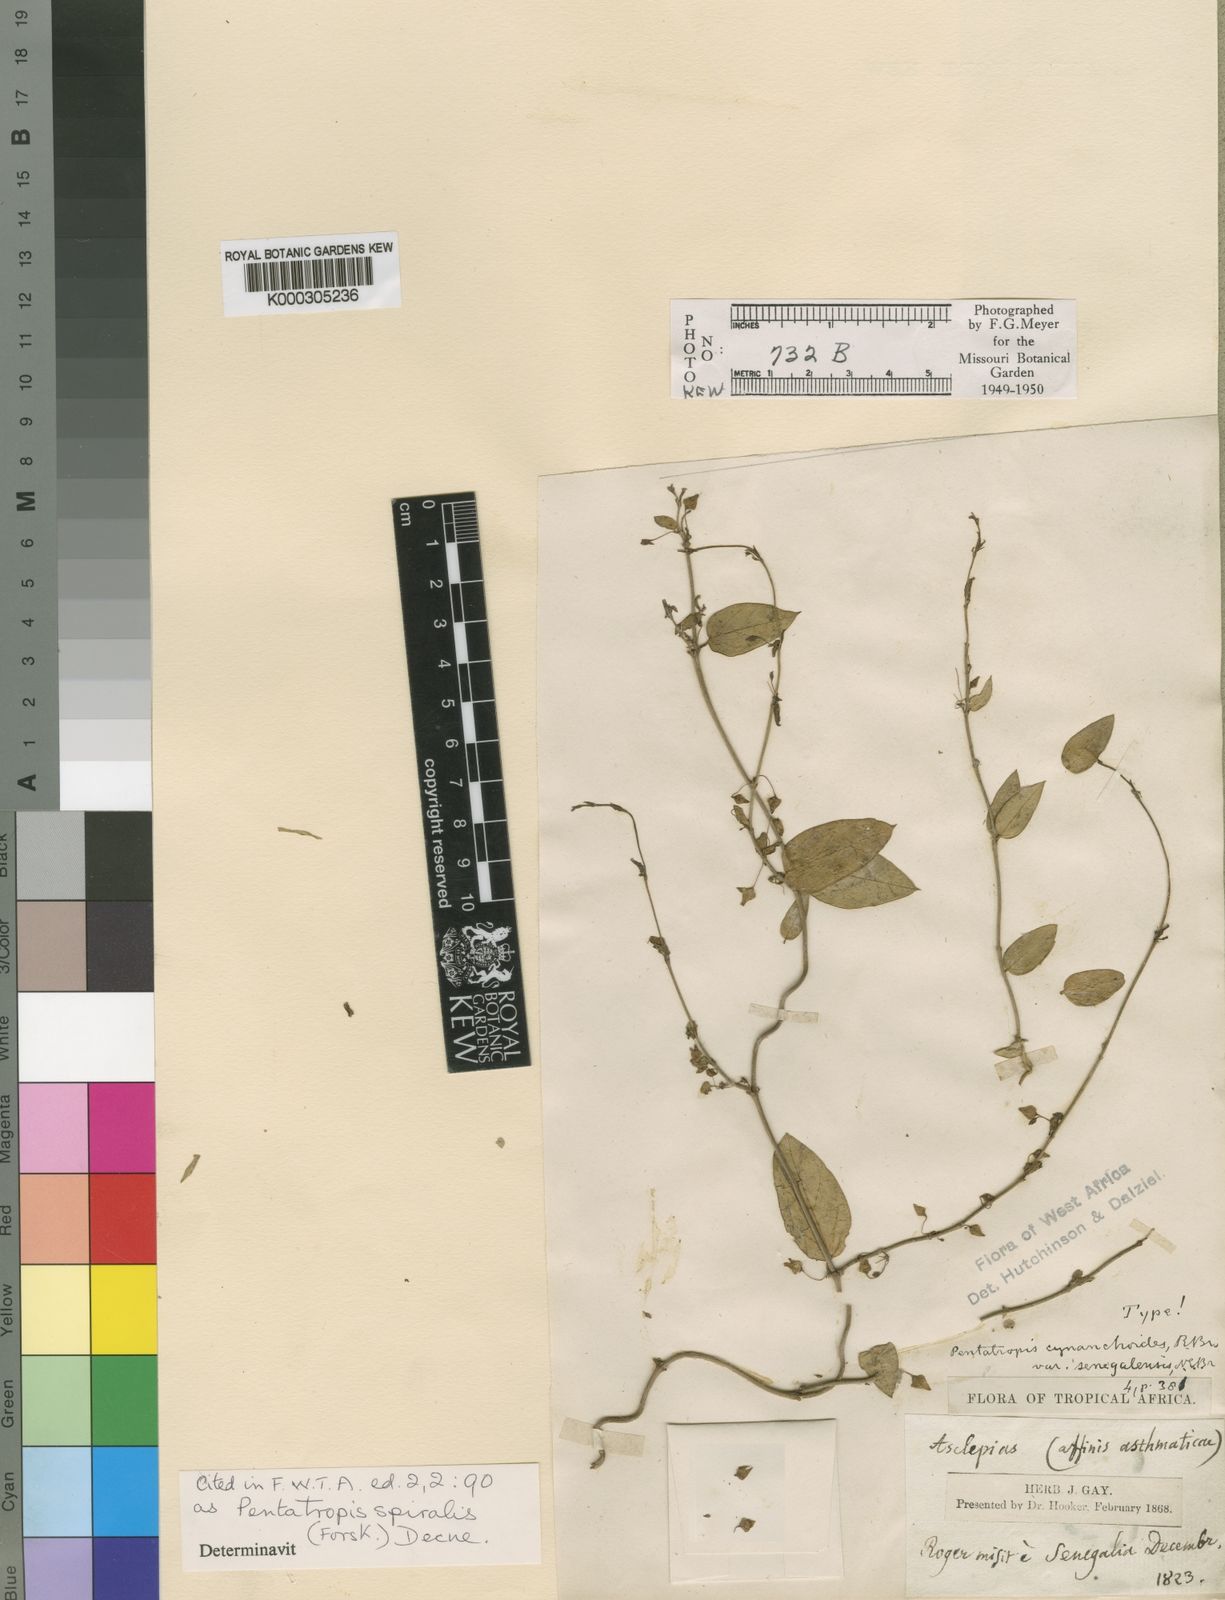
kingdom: Plantae
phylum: Tracheophyta
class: Magnoliopsida
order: Gentianales
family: Apocynaceae
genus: Pentatropis
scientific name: Pentatropis nivalis
